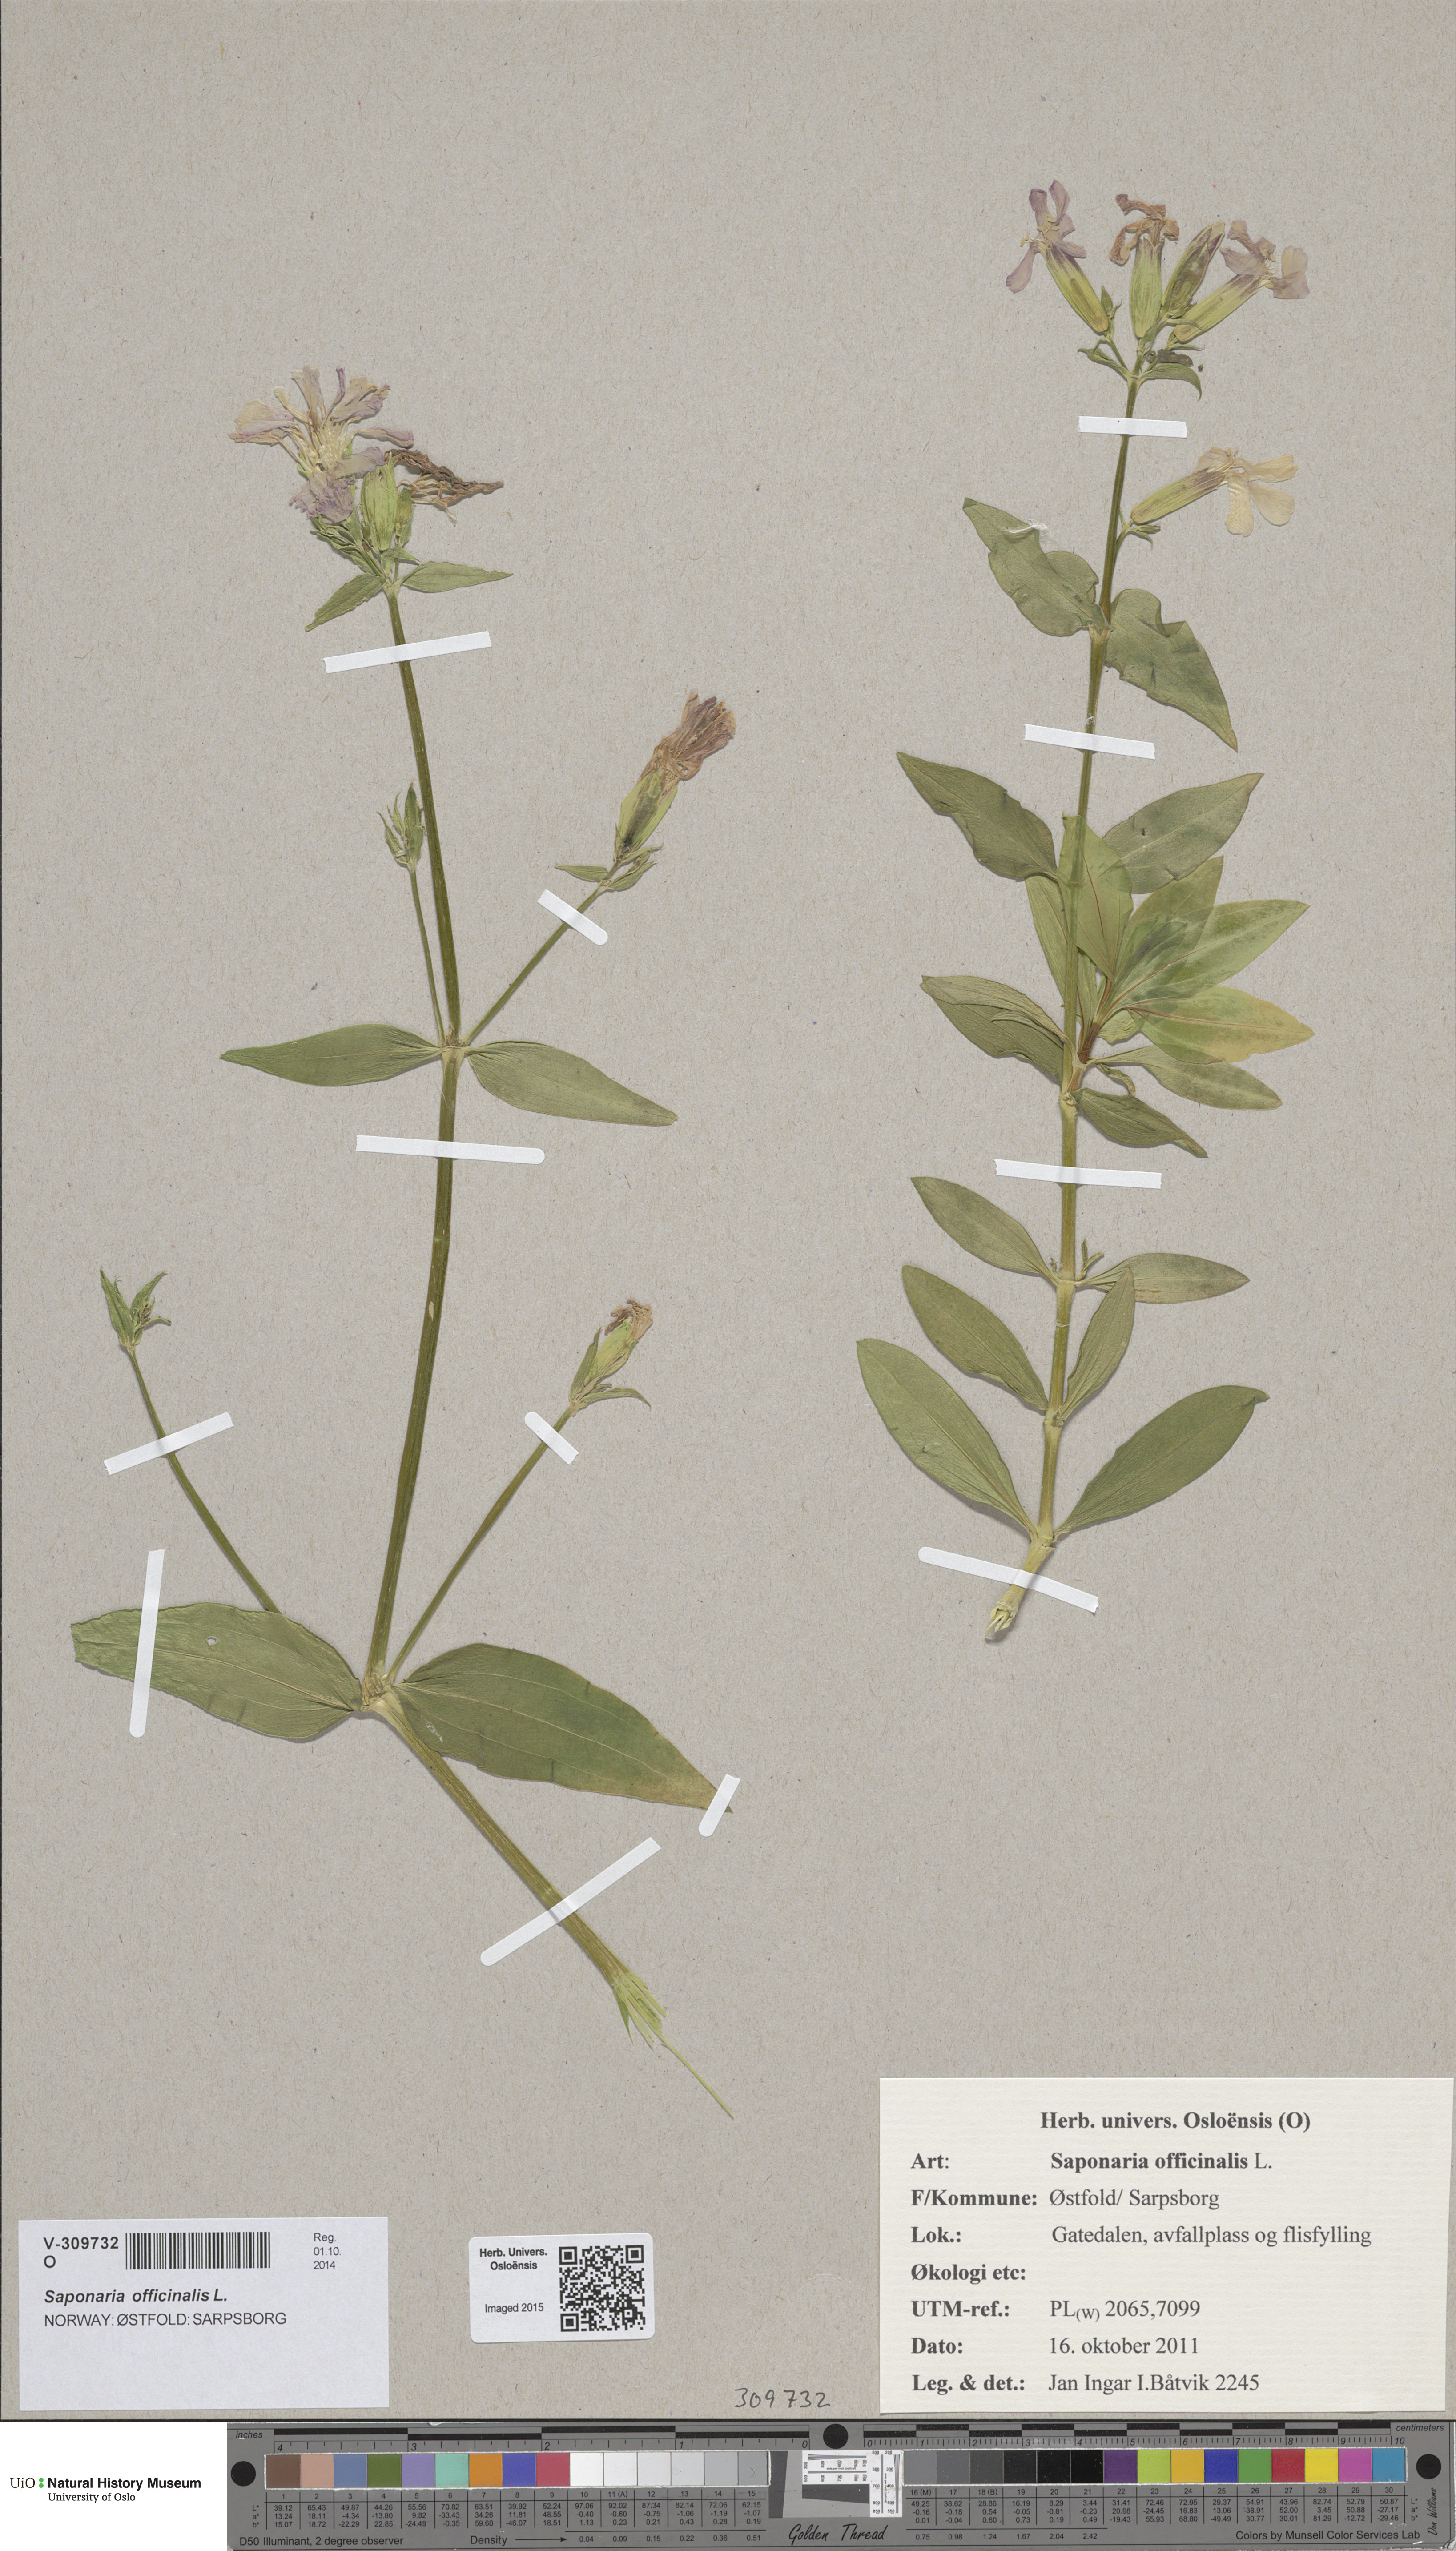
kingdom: Plantae
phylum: Tracheophyta
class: Magnoliopsida
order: Caryophyllales
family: Caryophyllaceae
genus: Saponaria
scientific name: Saponaria officinalis
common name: Soapwort
